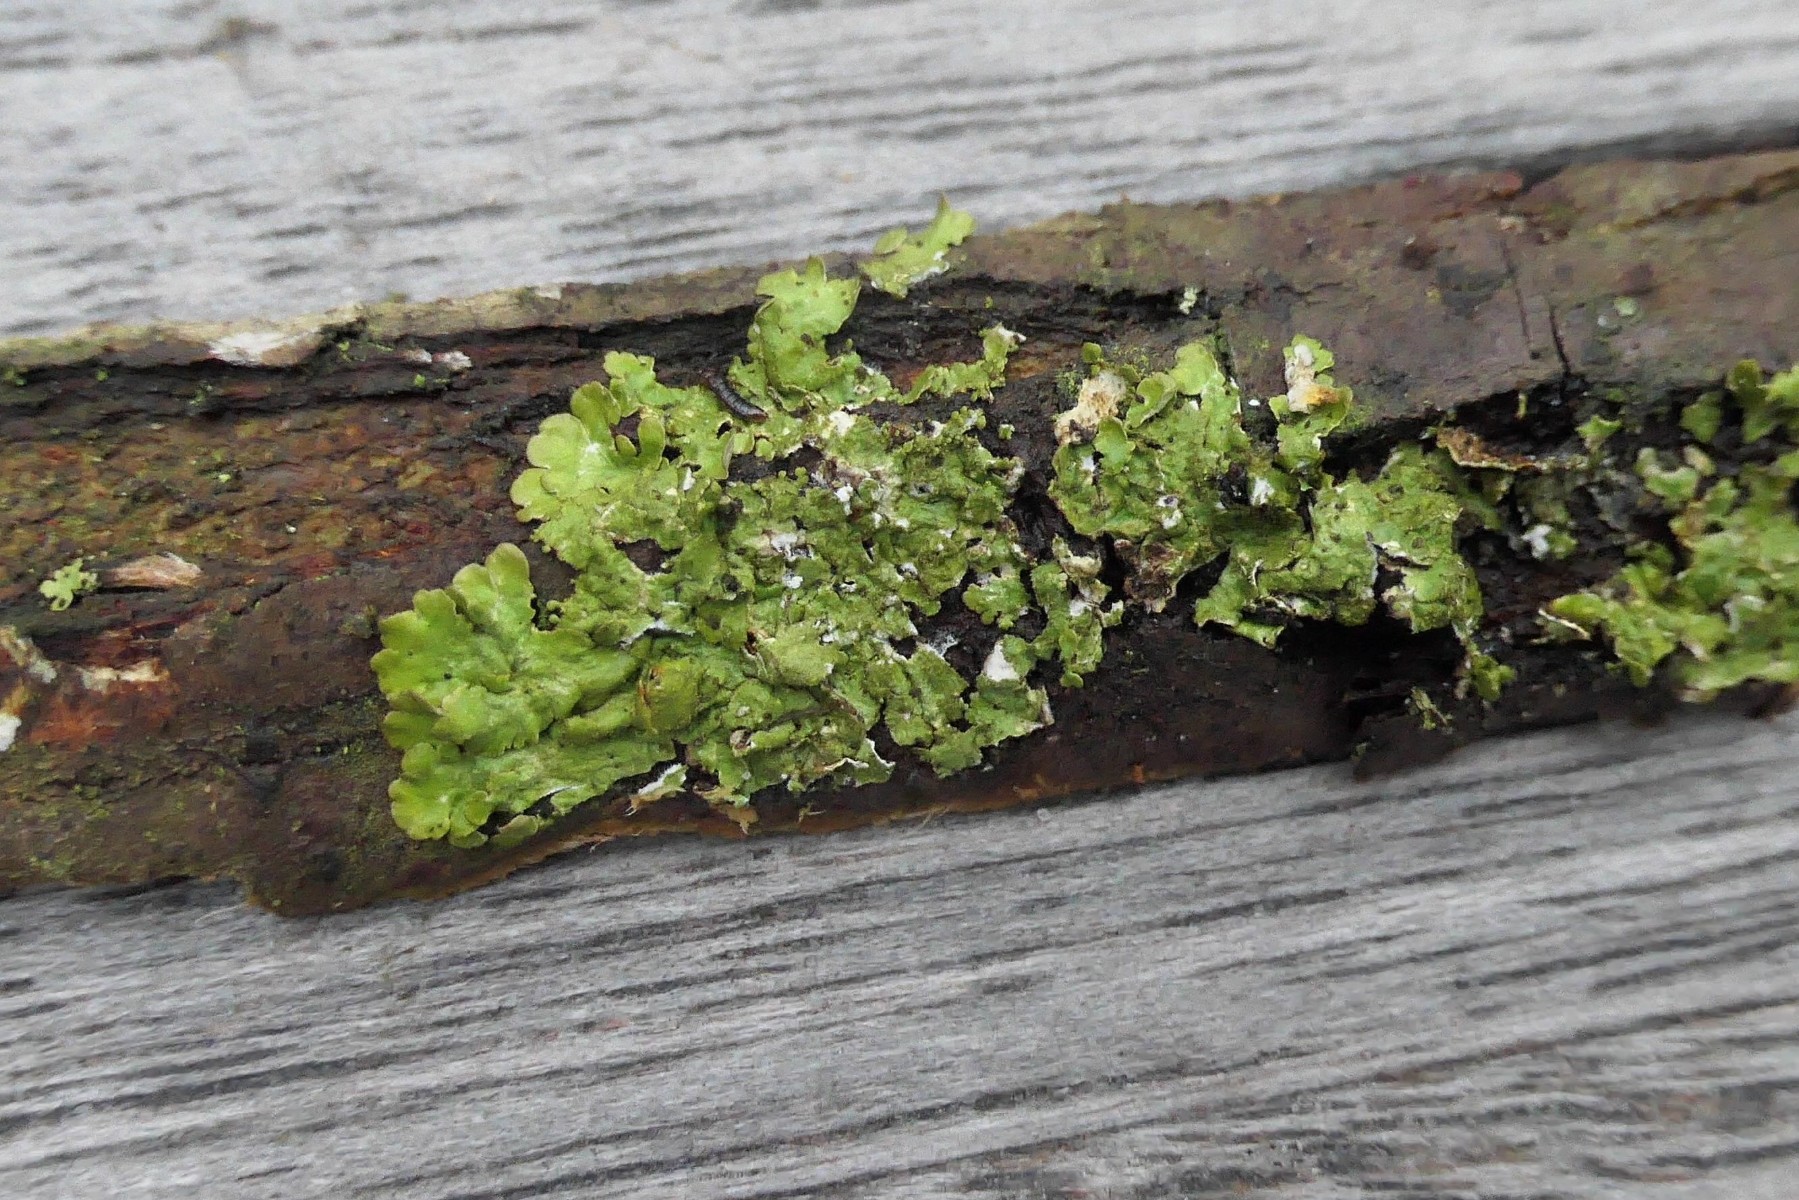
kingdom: Fungi
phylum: Ascomycota
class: Lecanoromycetes
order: Lecanorales
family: Parmeliaceae
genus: Melanelixia
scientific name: Melanelixia glabratula
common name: glinsende skållav
